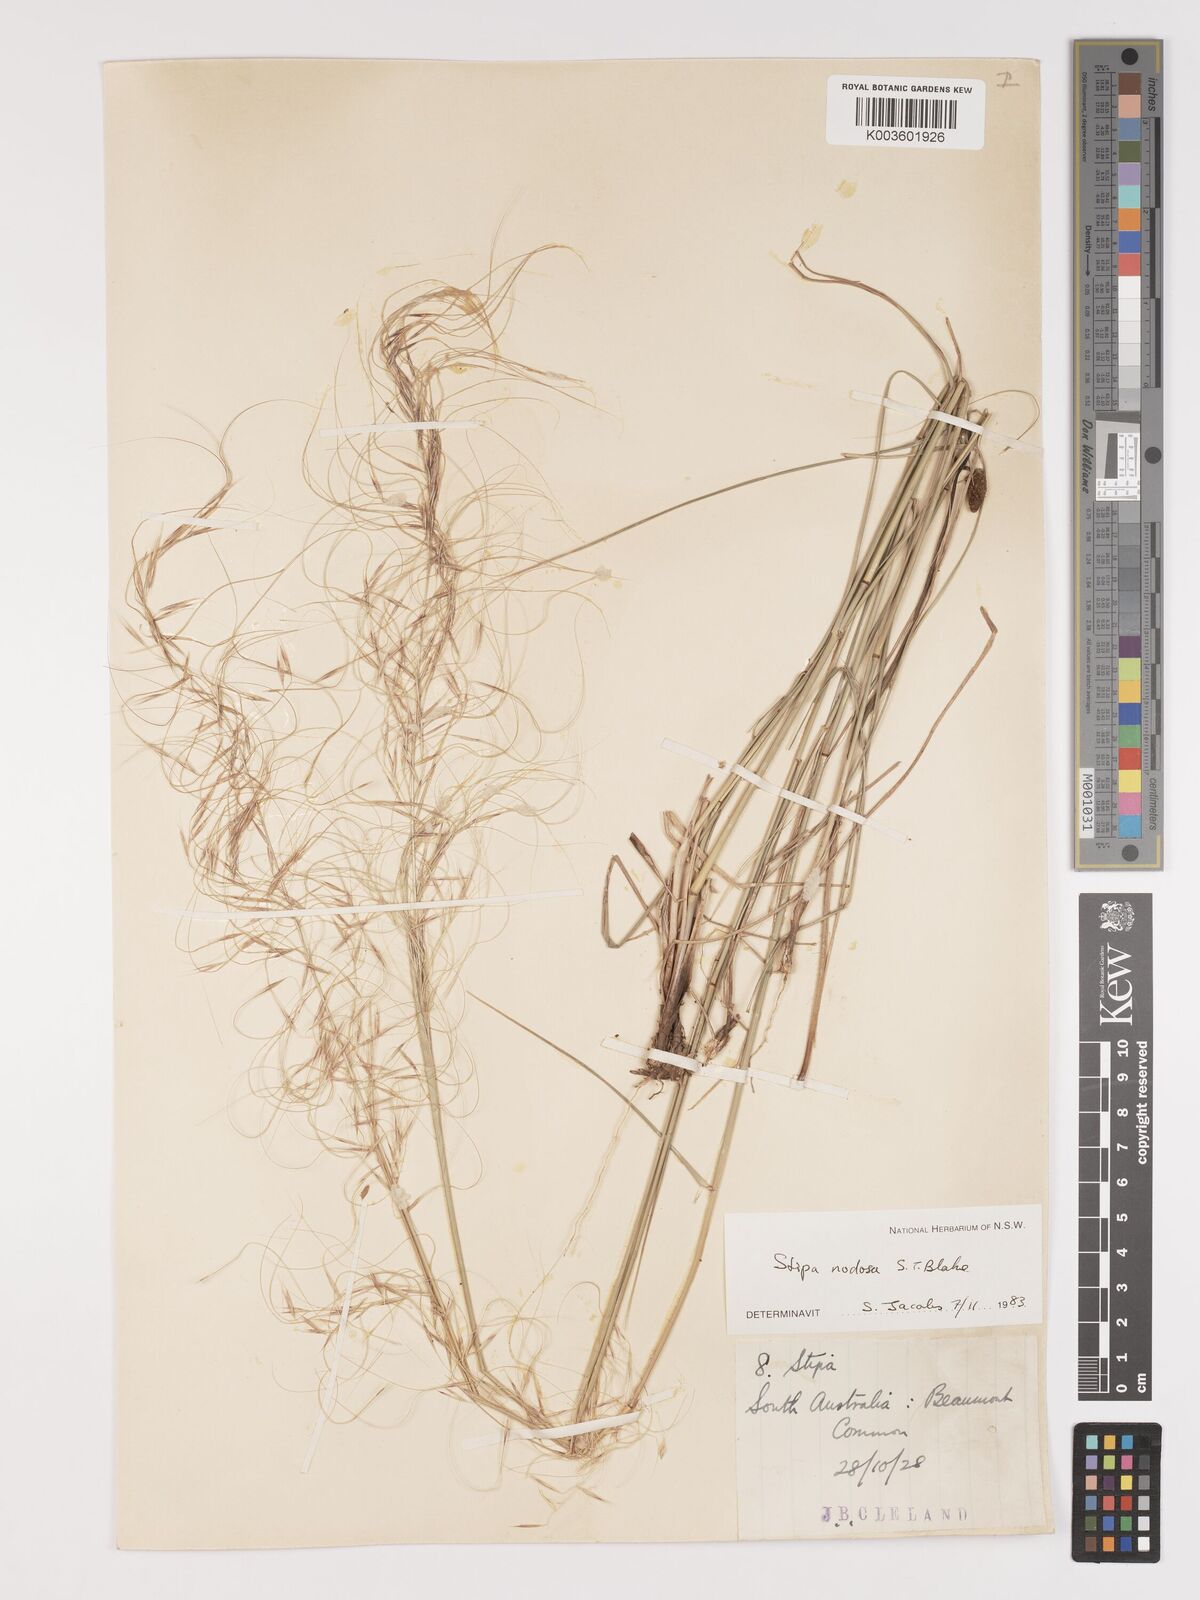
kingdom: Plantae
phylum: Tracheophyta
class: Liliopsida
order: Poales
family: Poaceae
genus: Austrostipa
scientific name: Austrostipa nodosa
